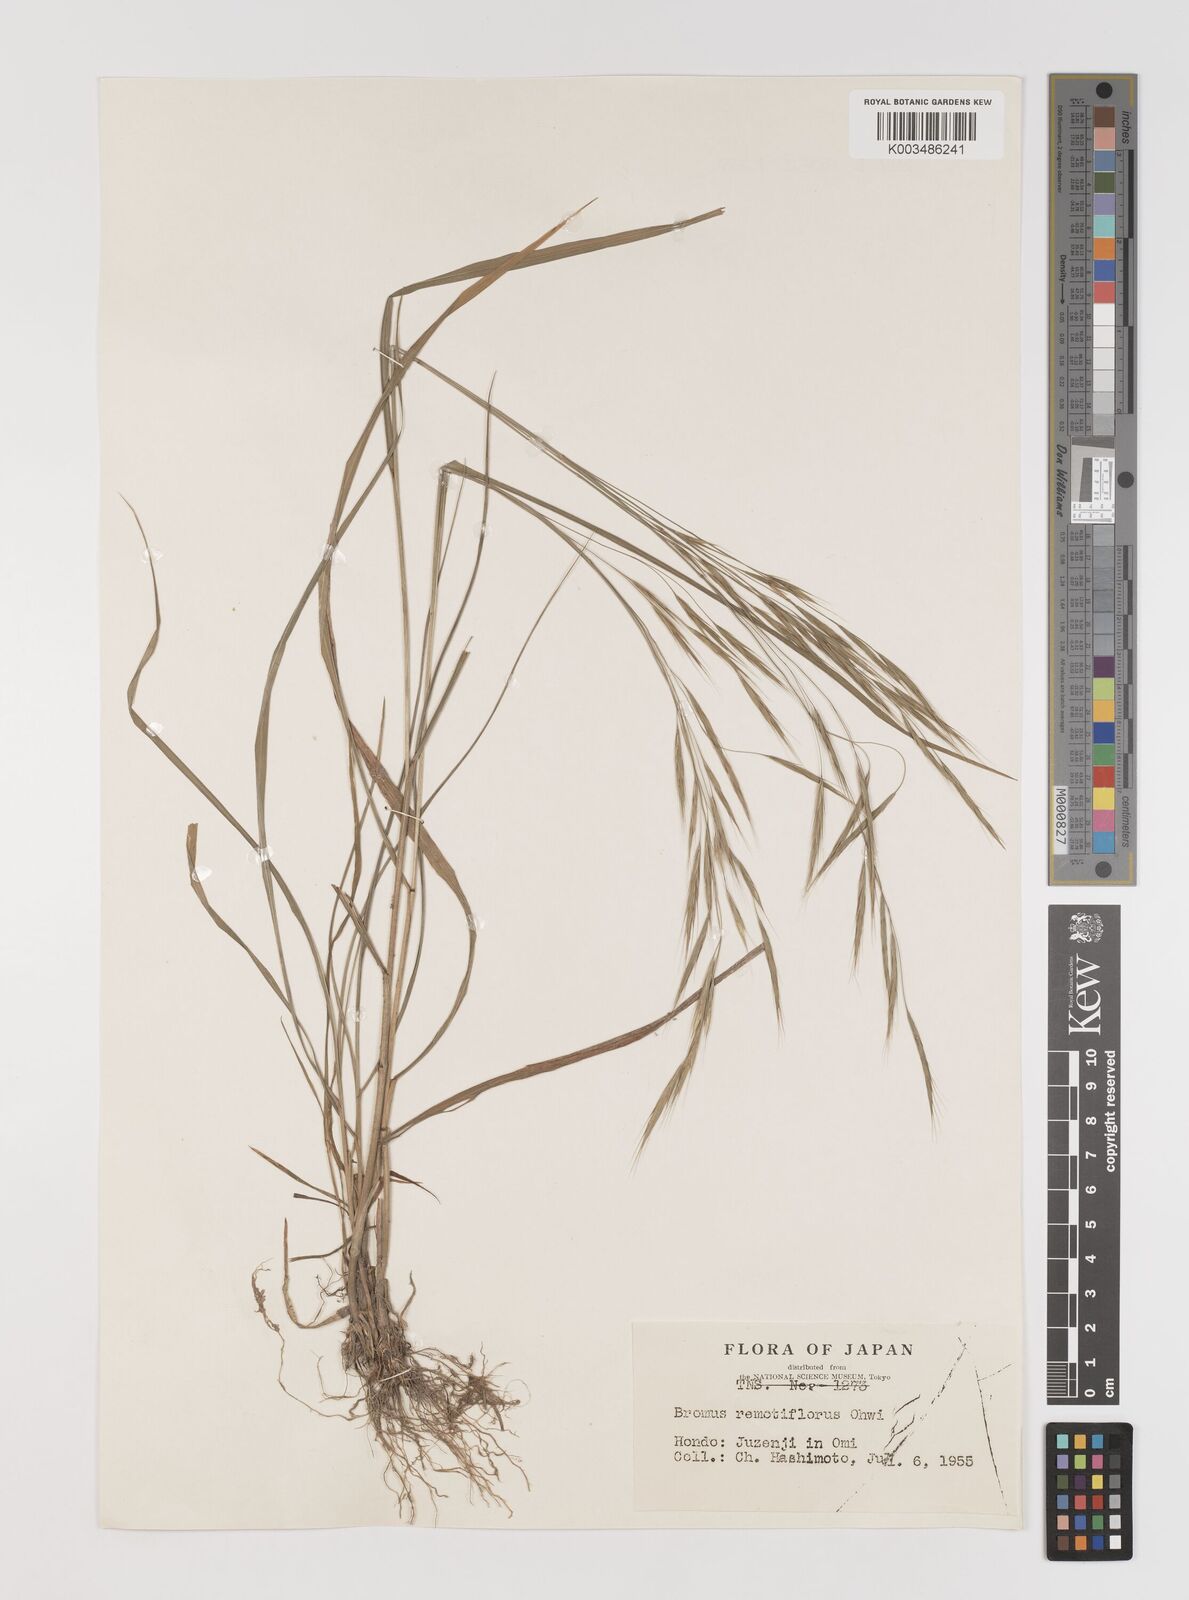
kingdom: Plantae
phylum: Tracheophyta
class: Liliopsida
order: Poales
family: Poaceae
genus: Bromus
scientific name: Bromus remotiflorus
